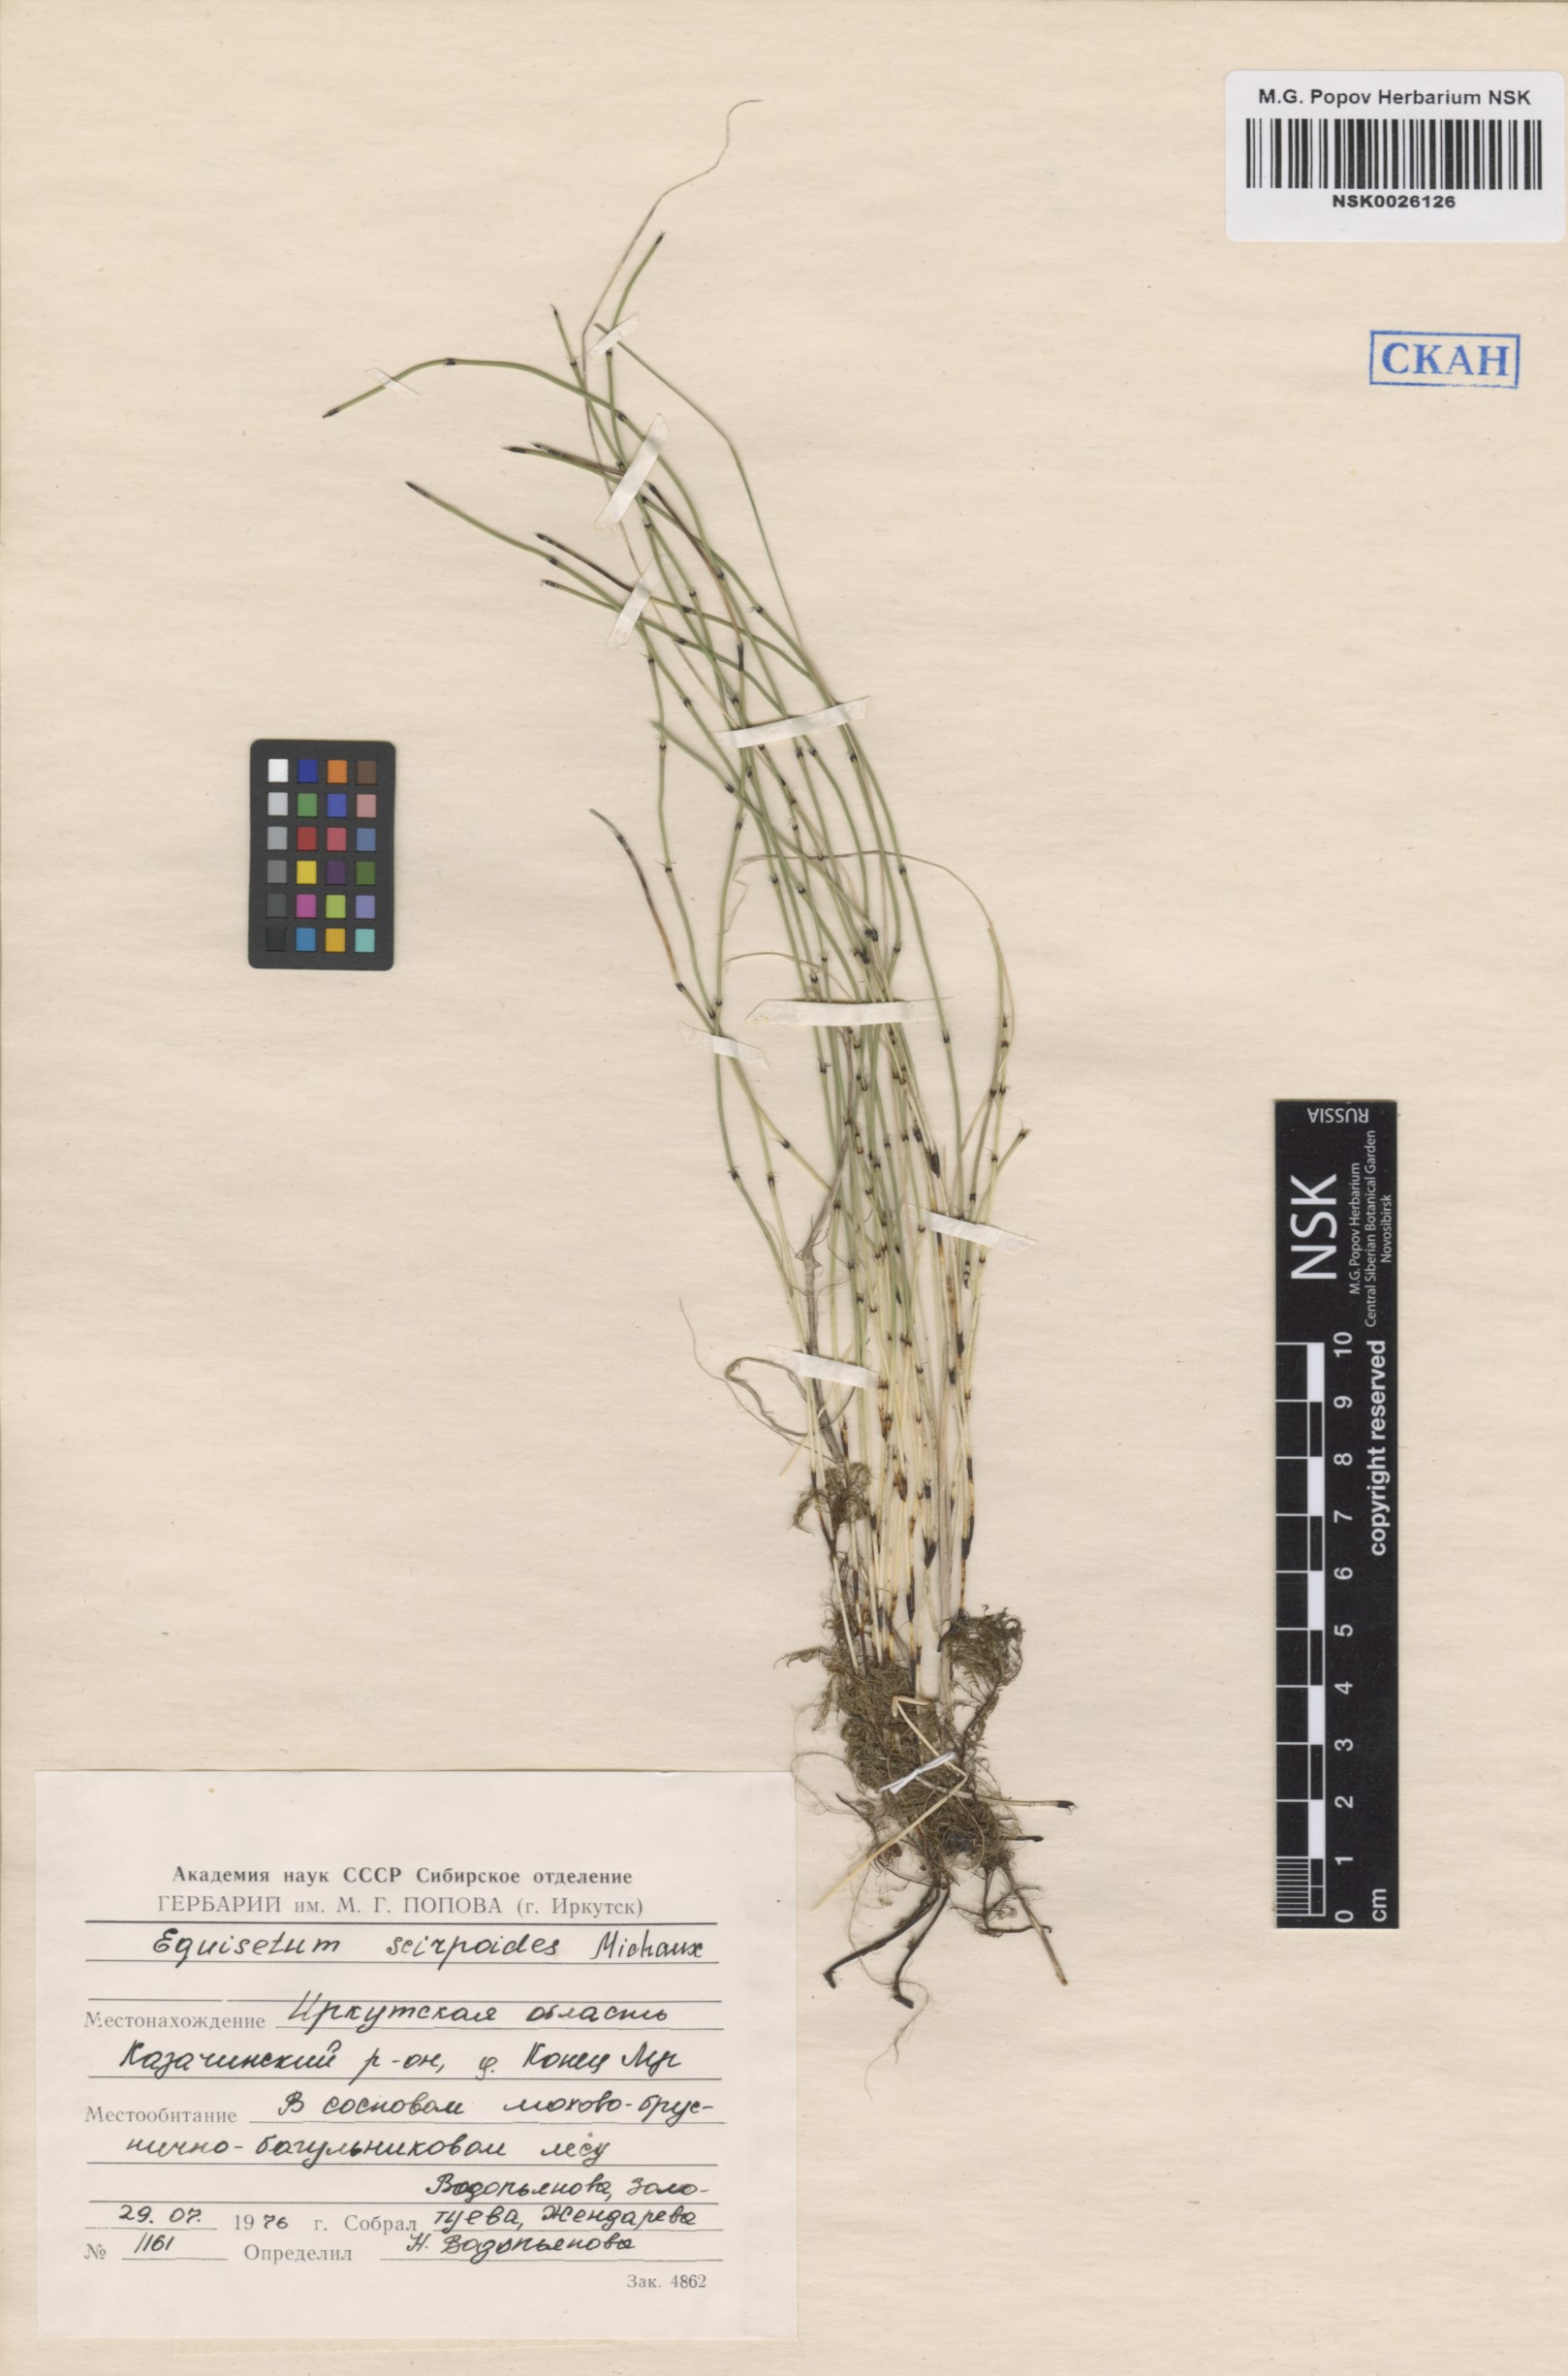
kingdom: Plantae
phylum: Tracheophyta
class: Polypodiopsida
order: Equisetales
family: Equisetaceae
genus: Equisetum
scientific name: Equisetum scirpoides
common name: Delicate horsetail
